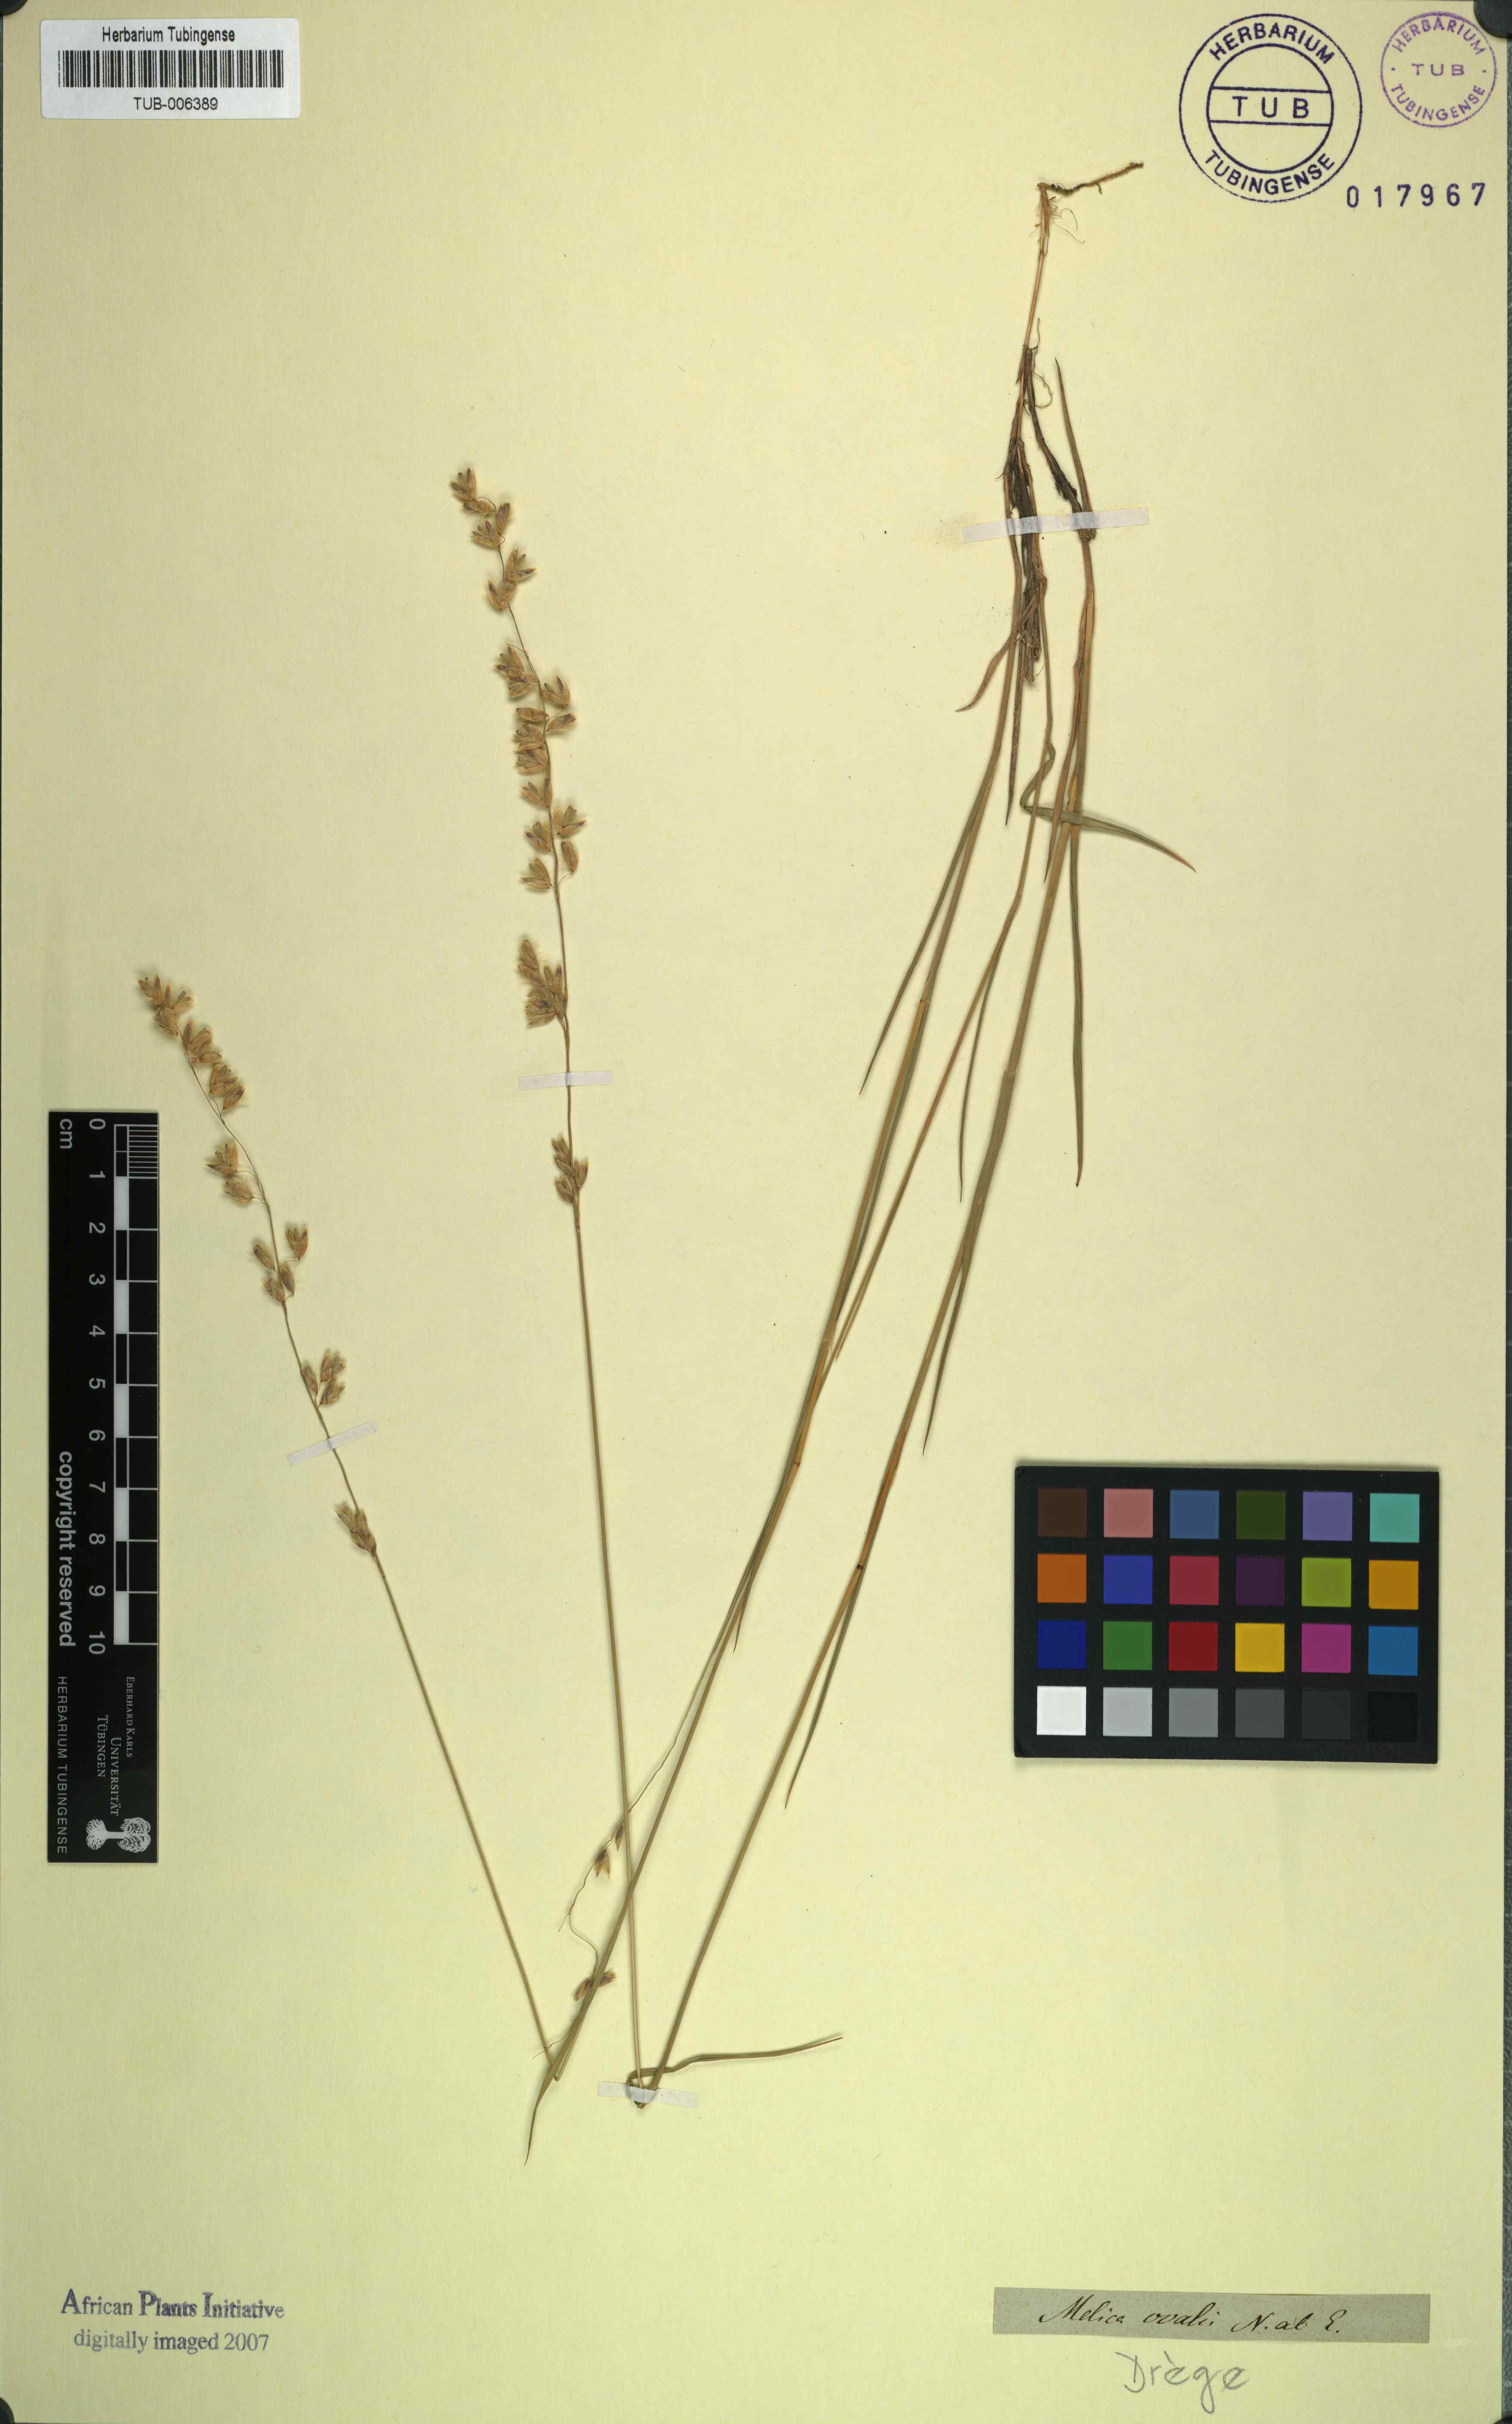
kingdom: Plantae
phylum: Tracheophyta
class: Liliopsida
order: Poales
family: Poaceae
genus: Melica
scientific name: Melica racemosa
